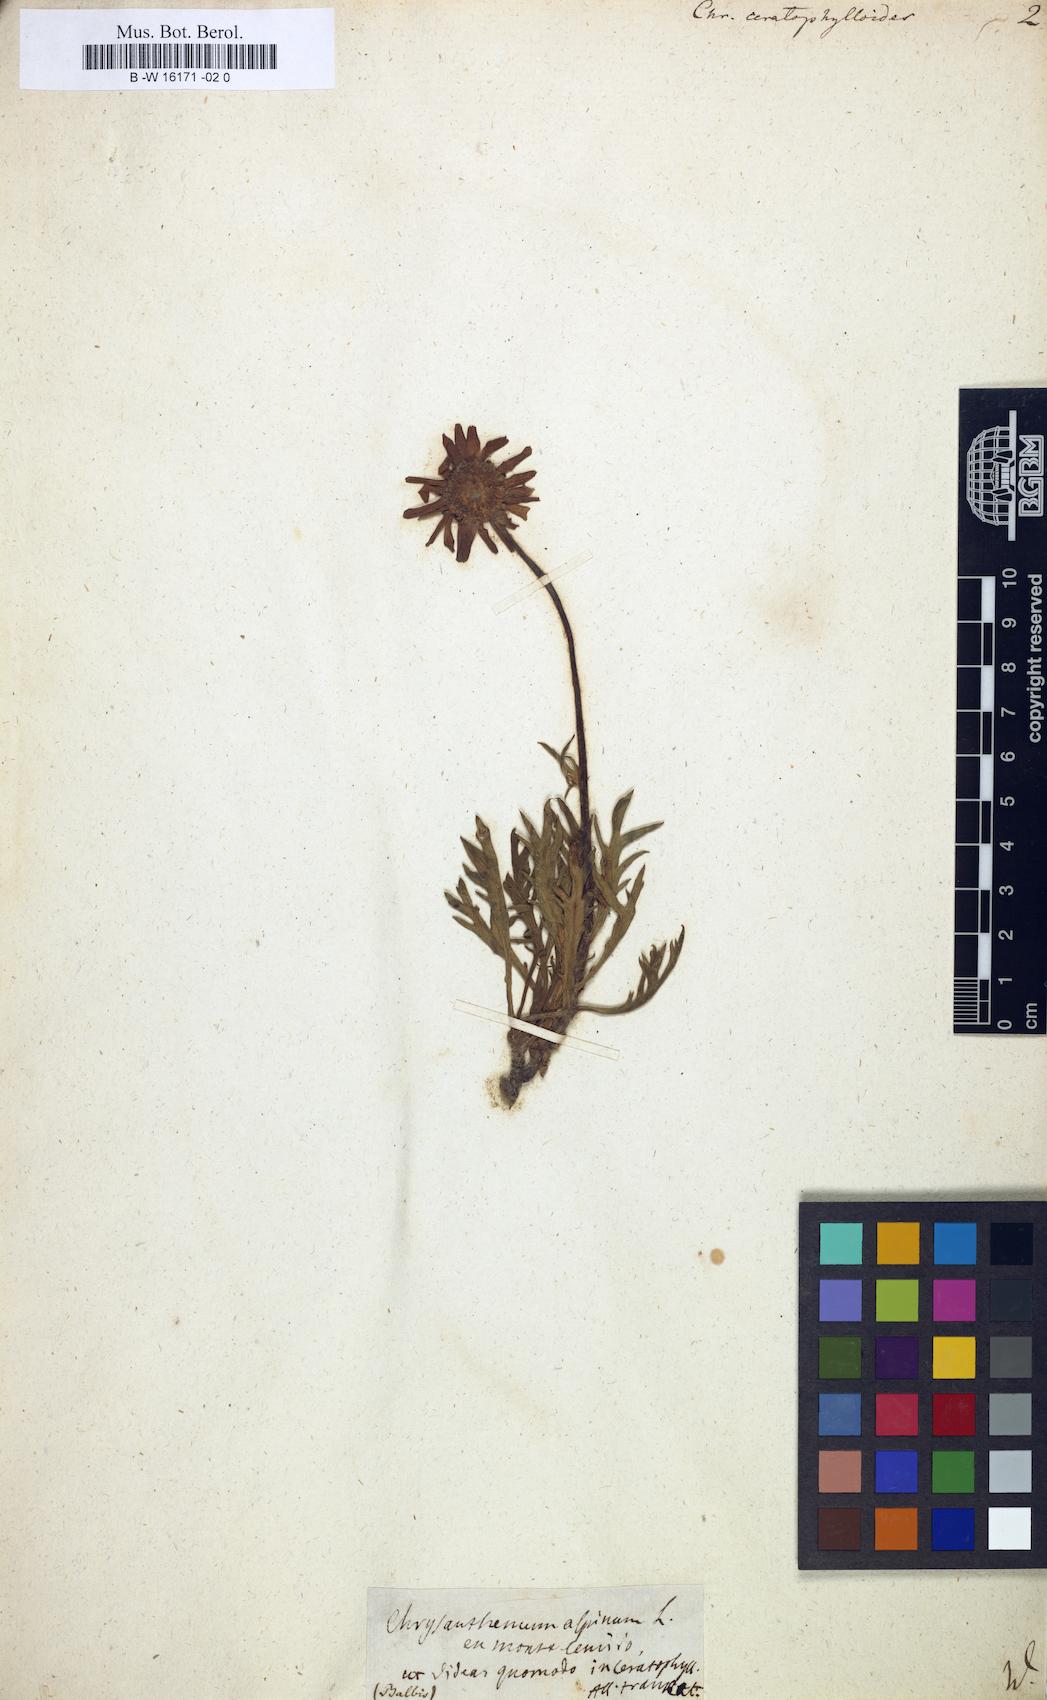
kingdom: Plantae
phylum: Tracheophyta
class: Magnoliopsida
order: Asterales
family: Asteraceae
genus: Leucanthemum
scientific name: Leucanthemum coronopifolium
